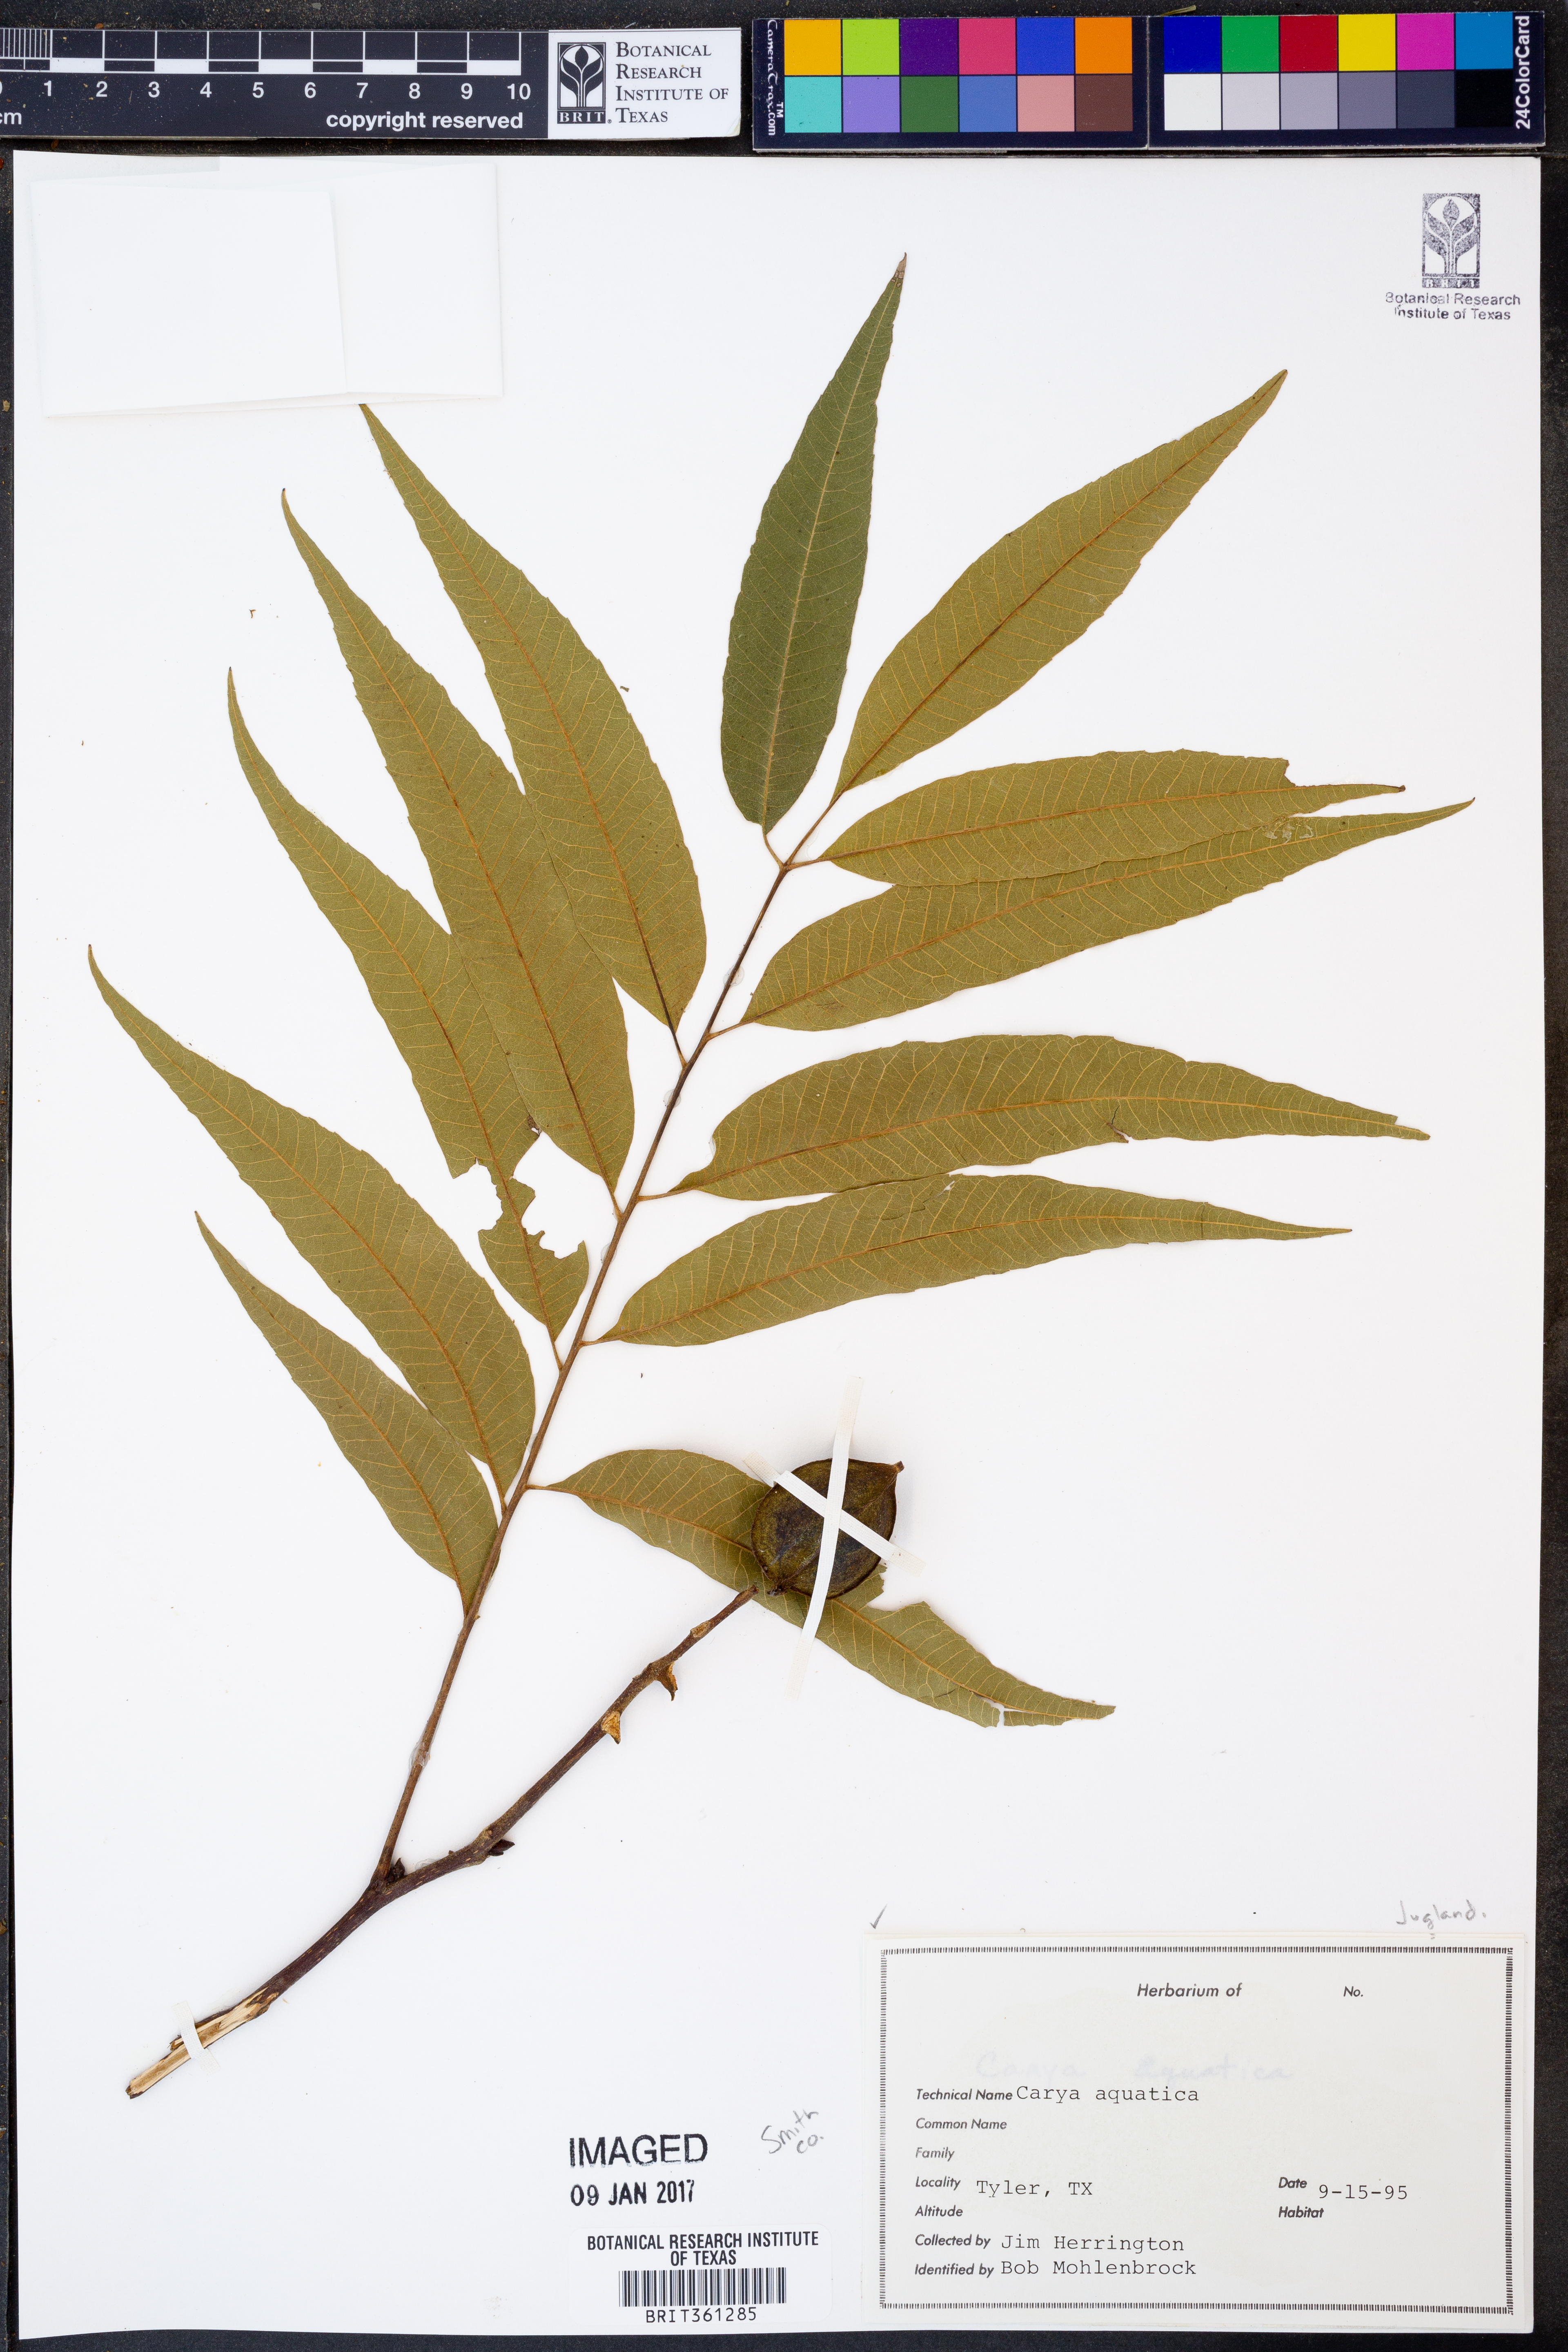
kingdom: Plantae
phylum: Tracheophyta
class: Magnoliopsida
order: Fagales
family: Juglandaceae
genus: Carya
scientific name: Carya aquatica
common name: Water hickory
